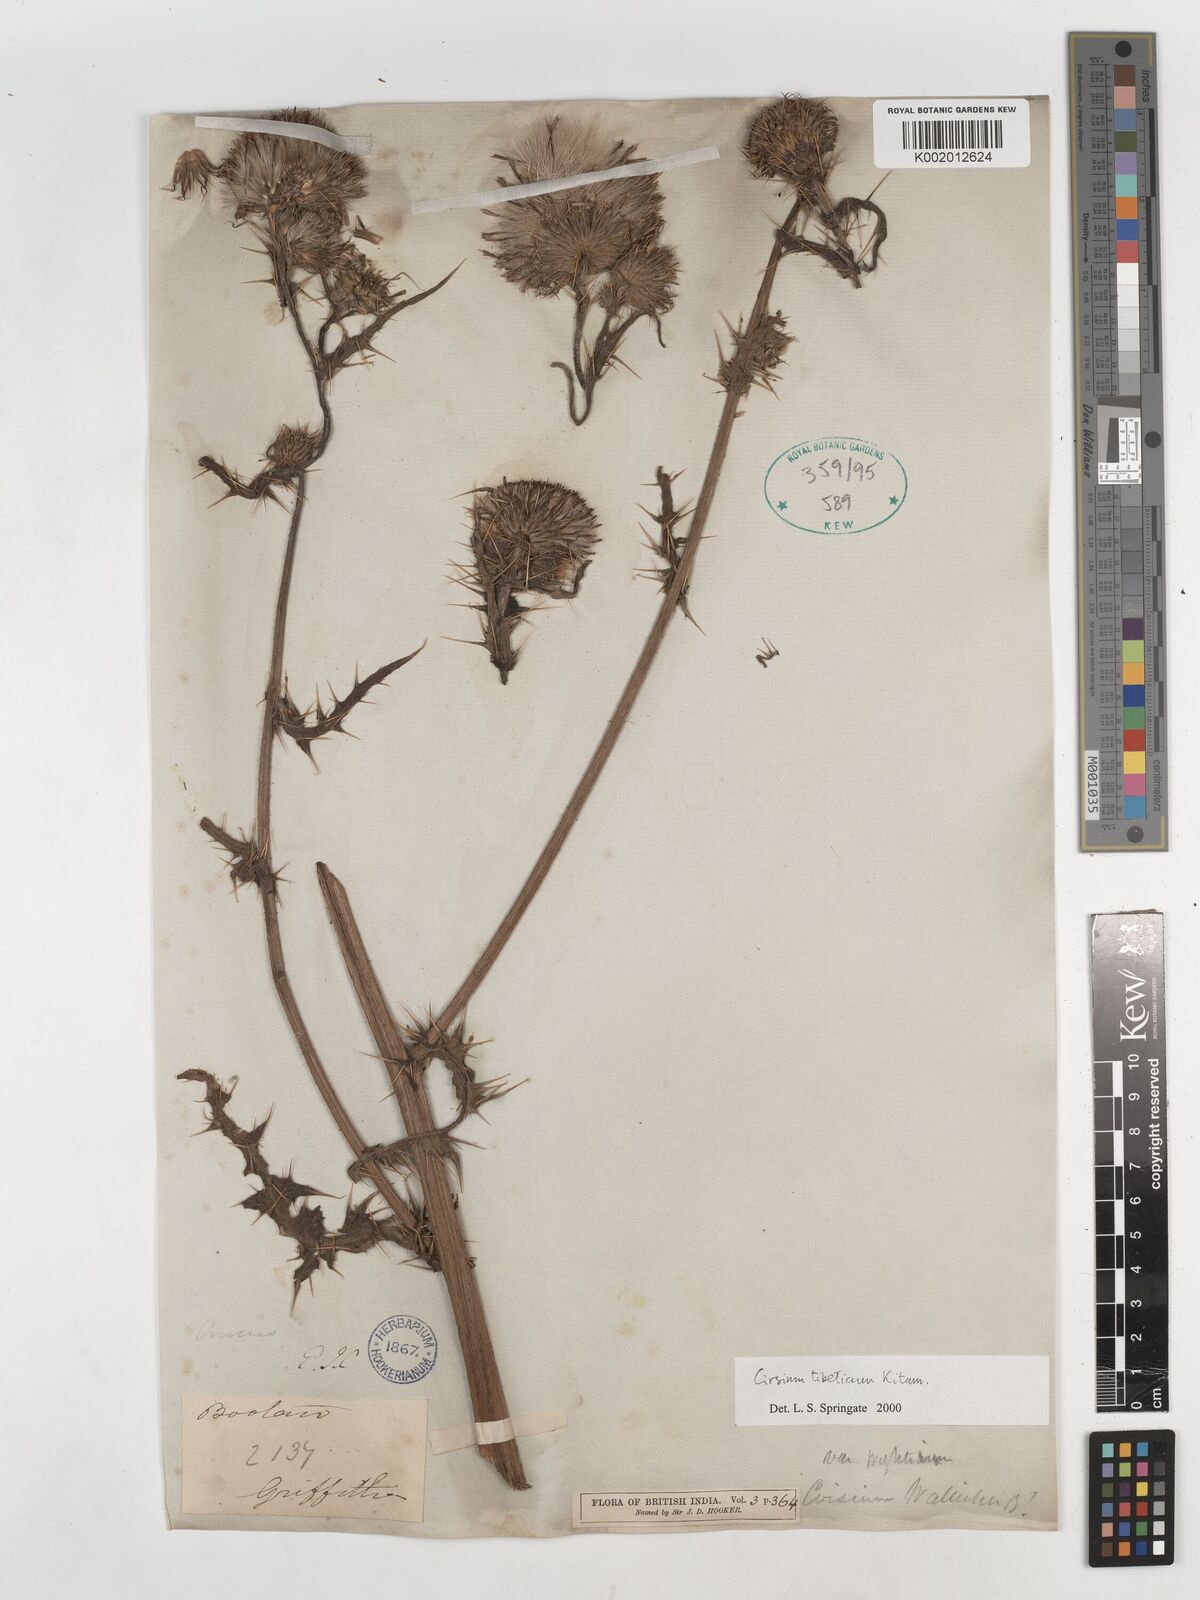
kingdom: Plantae
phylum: Tracheophyta
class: Magnoliopsida
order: Asterales
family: Asteraceae
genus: Cirsium
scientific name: Cirsium wallichii
